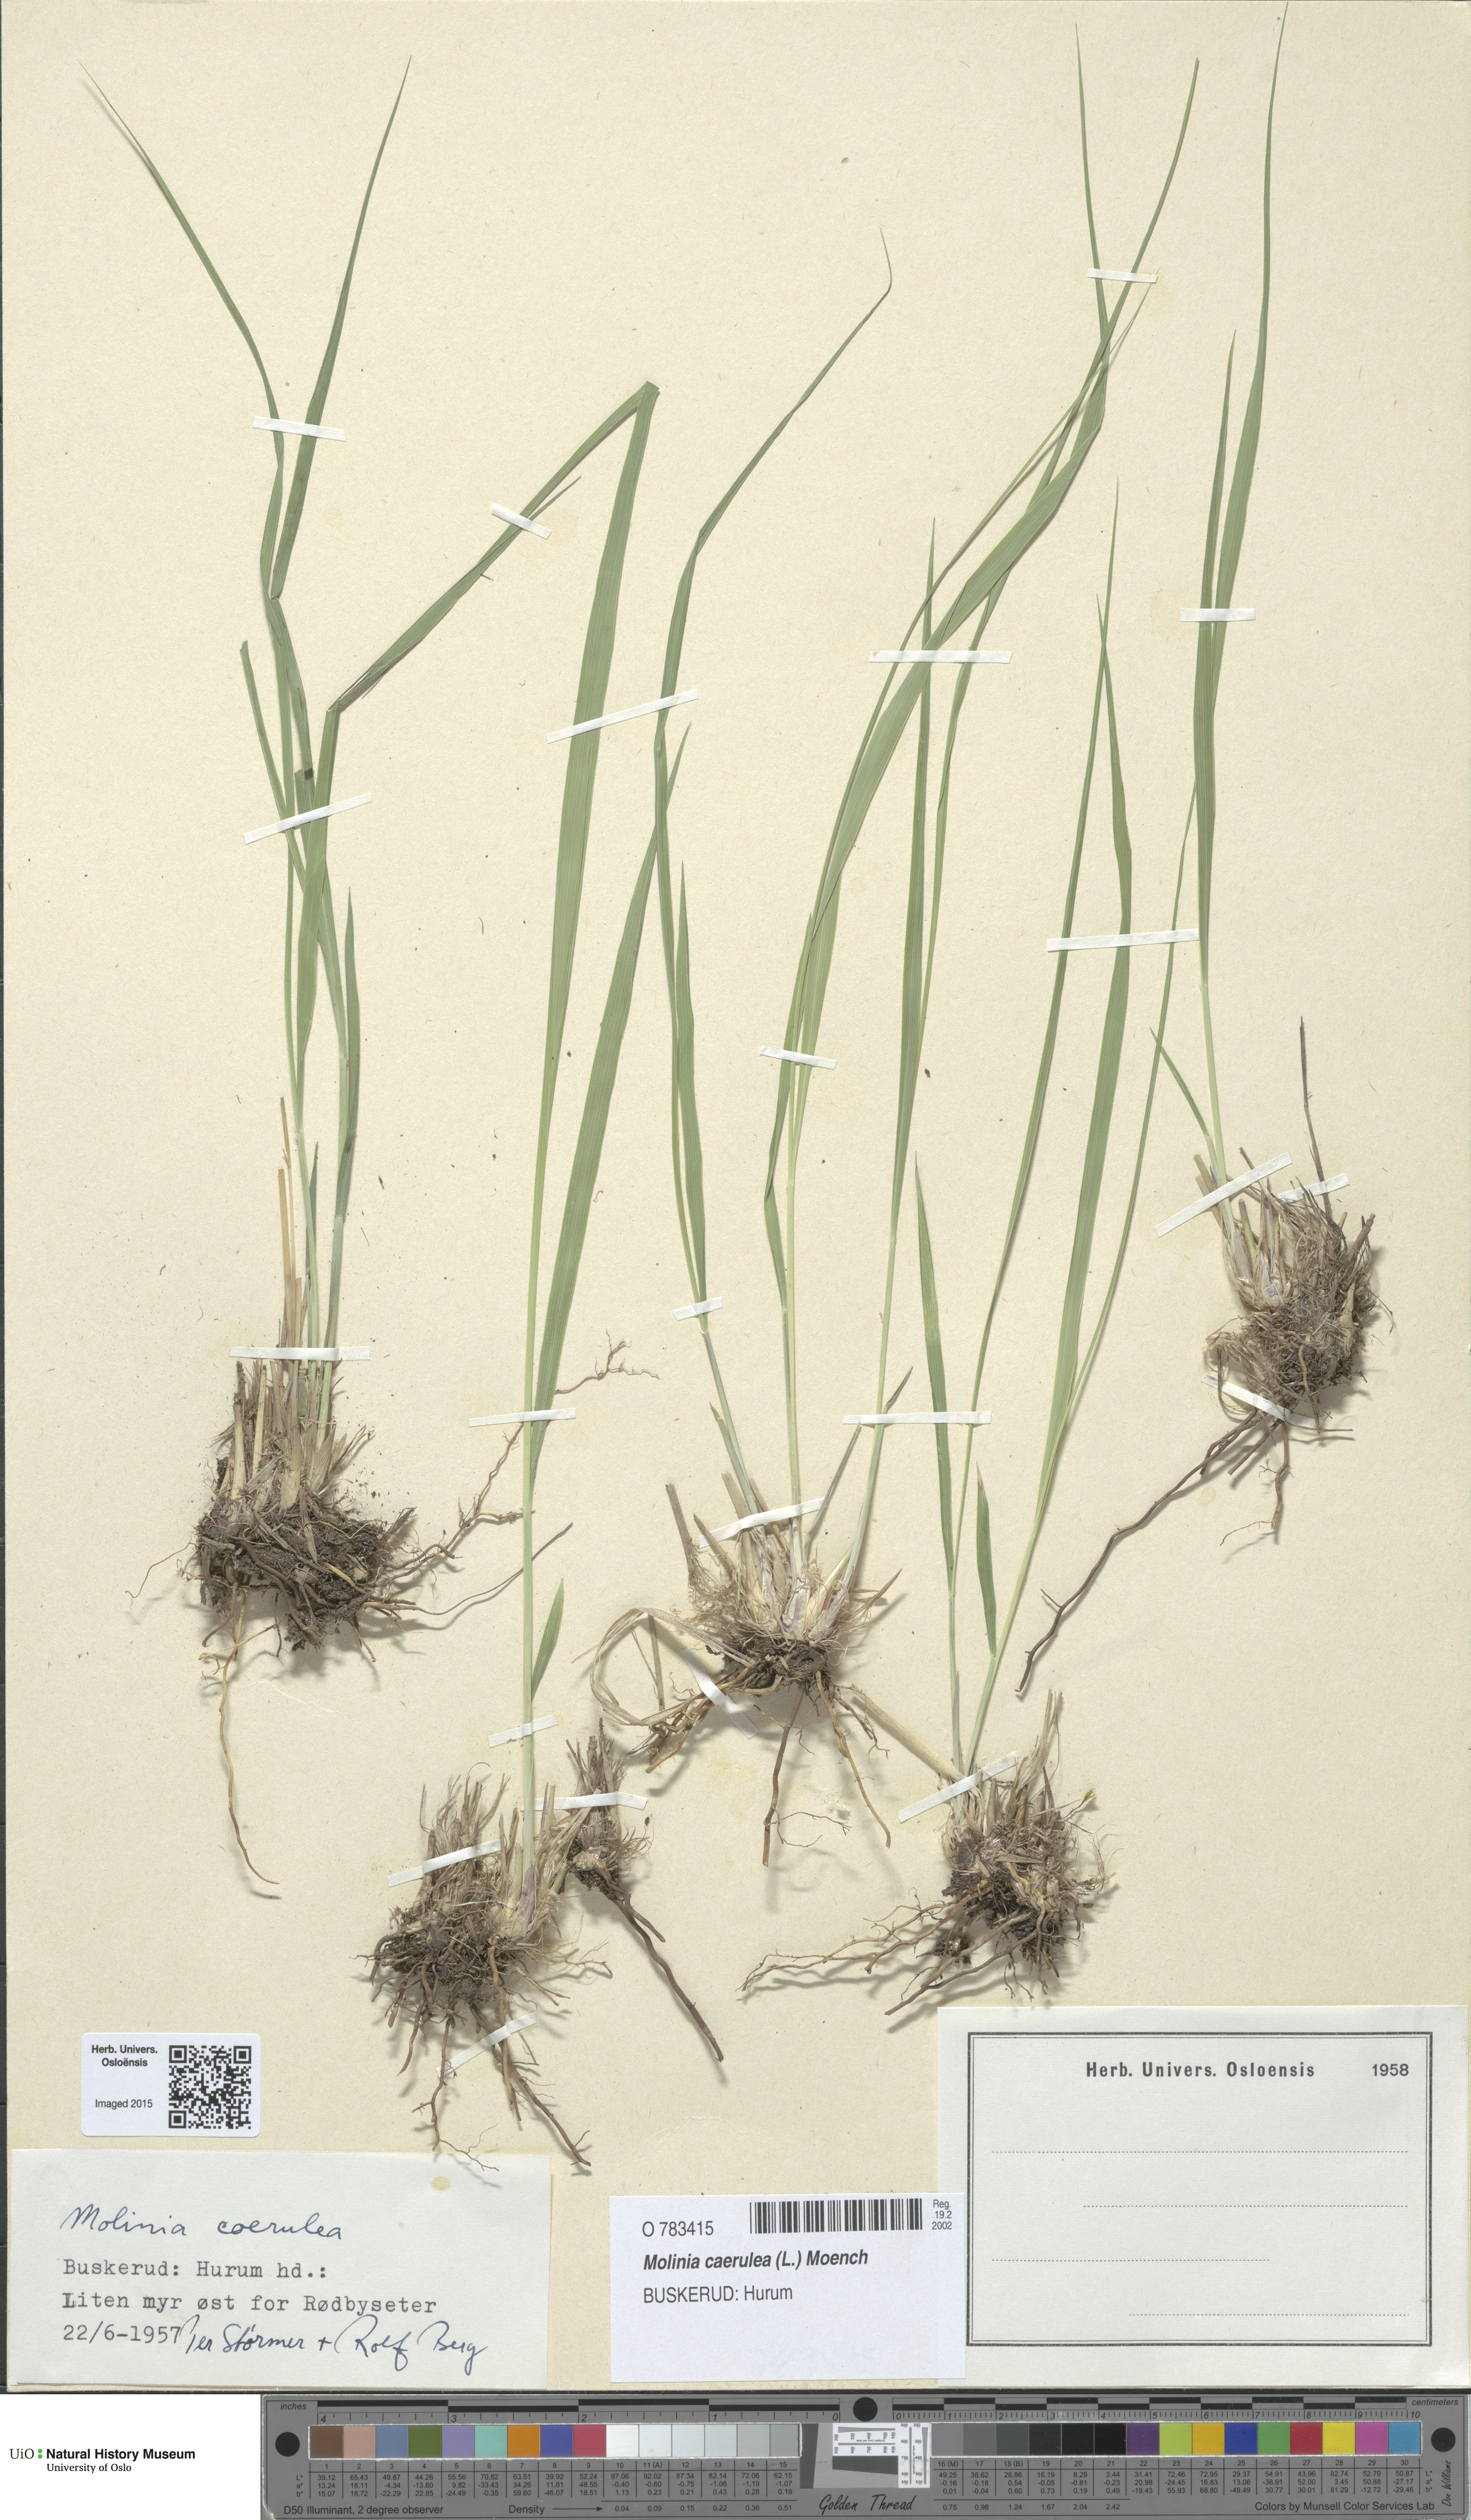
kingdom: Plantae
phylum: Tracheophyta
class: Liliopsida
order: Poales
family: Poaceae
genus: Molinia
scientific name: Molinia caerulea
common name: Purple moor-grass
